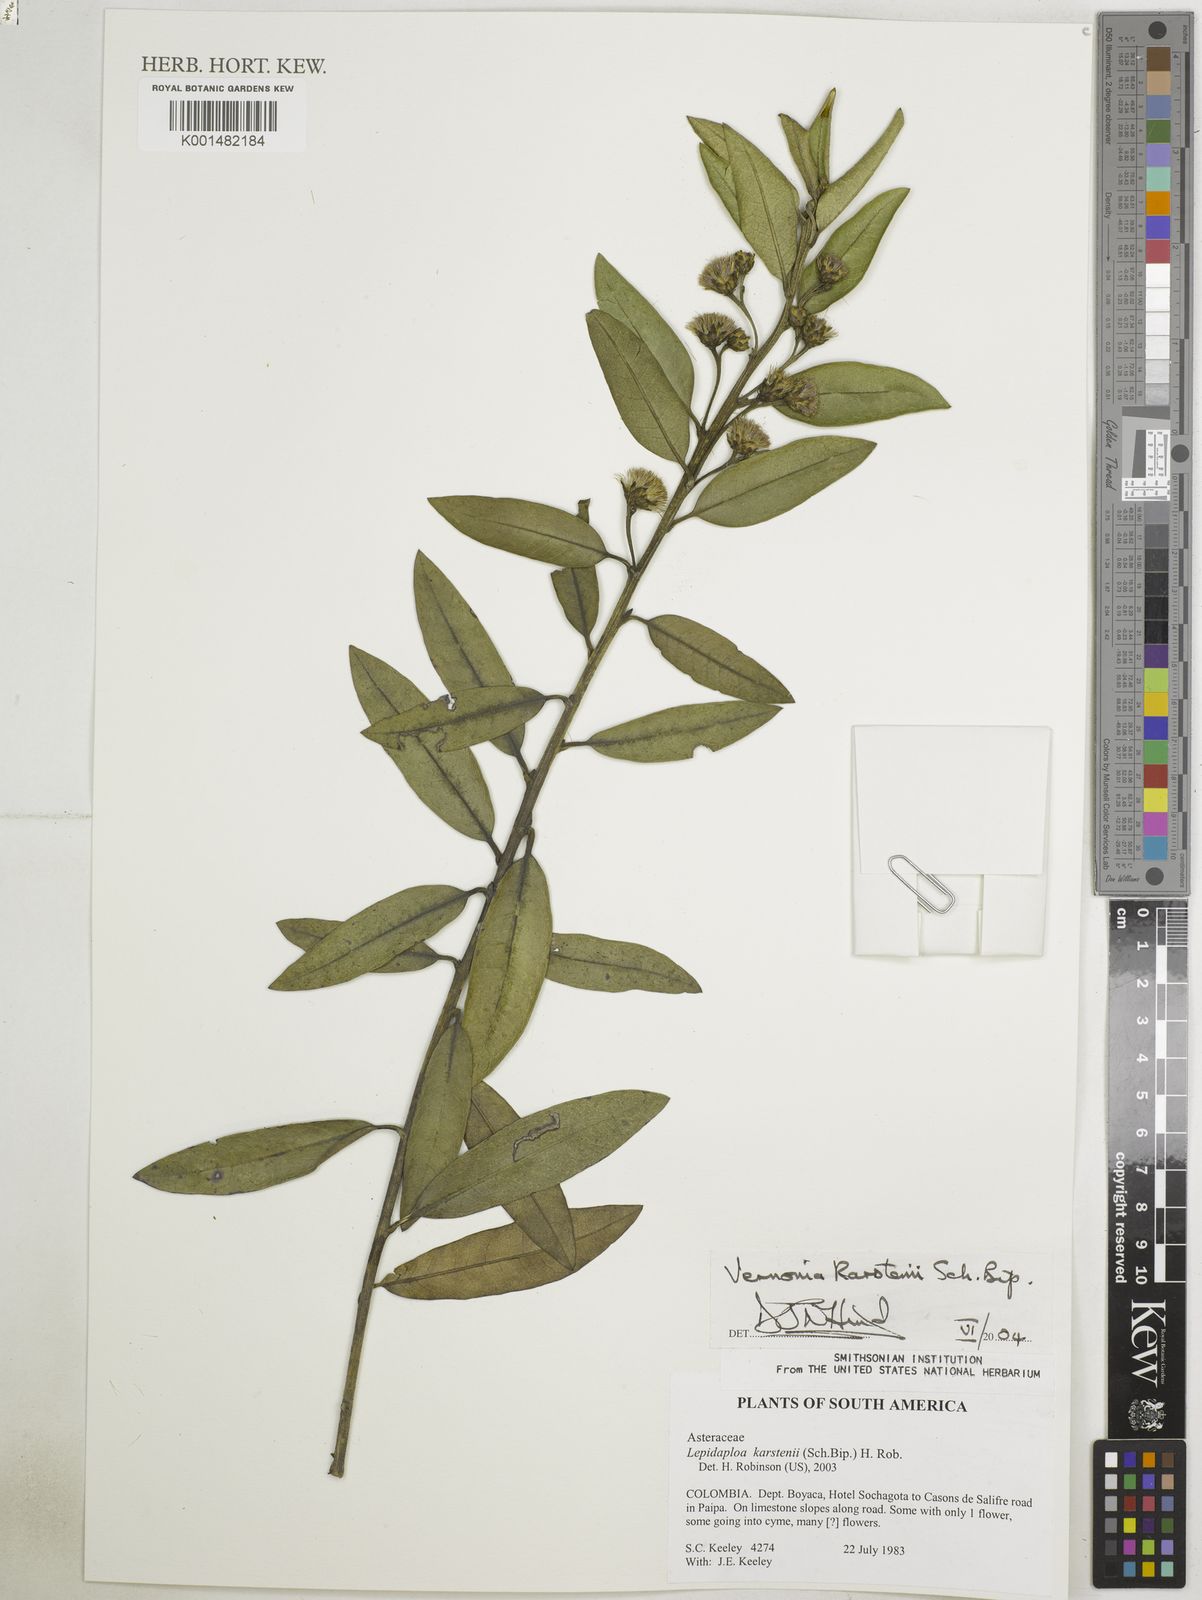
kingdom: Plantae
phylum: Tracheophyta
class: Magnoliopsida
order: Asterales
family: Asteraceae
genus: Lepidaploa
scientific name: Lepidaploa karstenii
